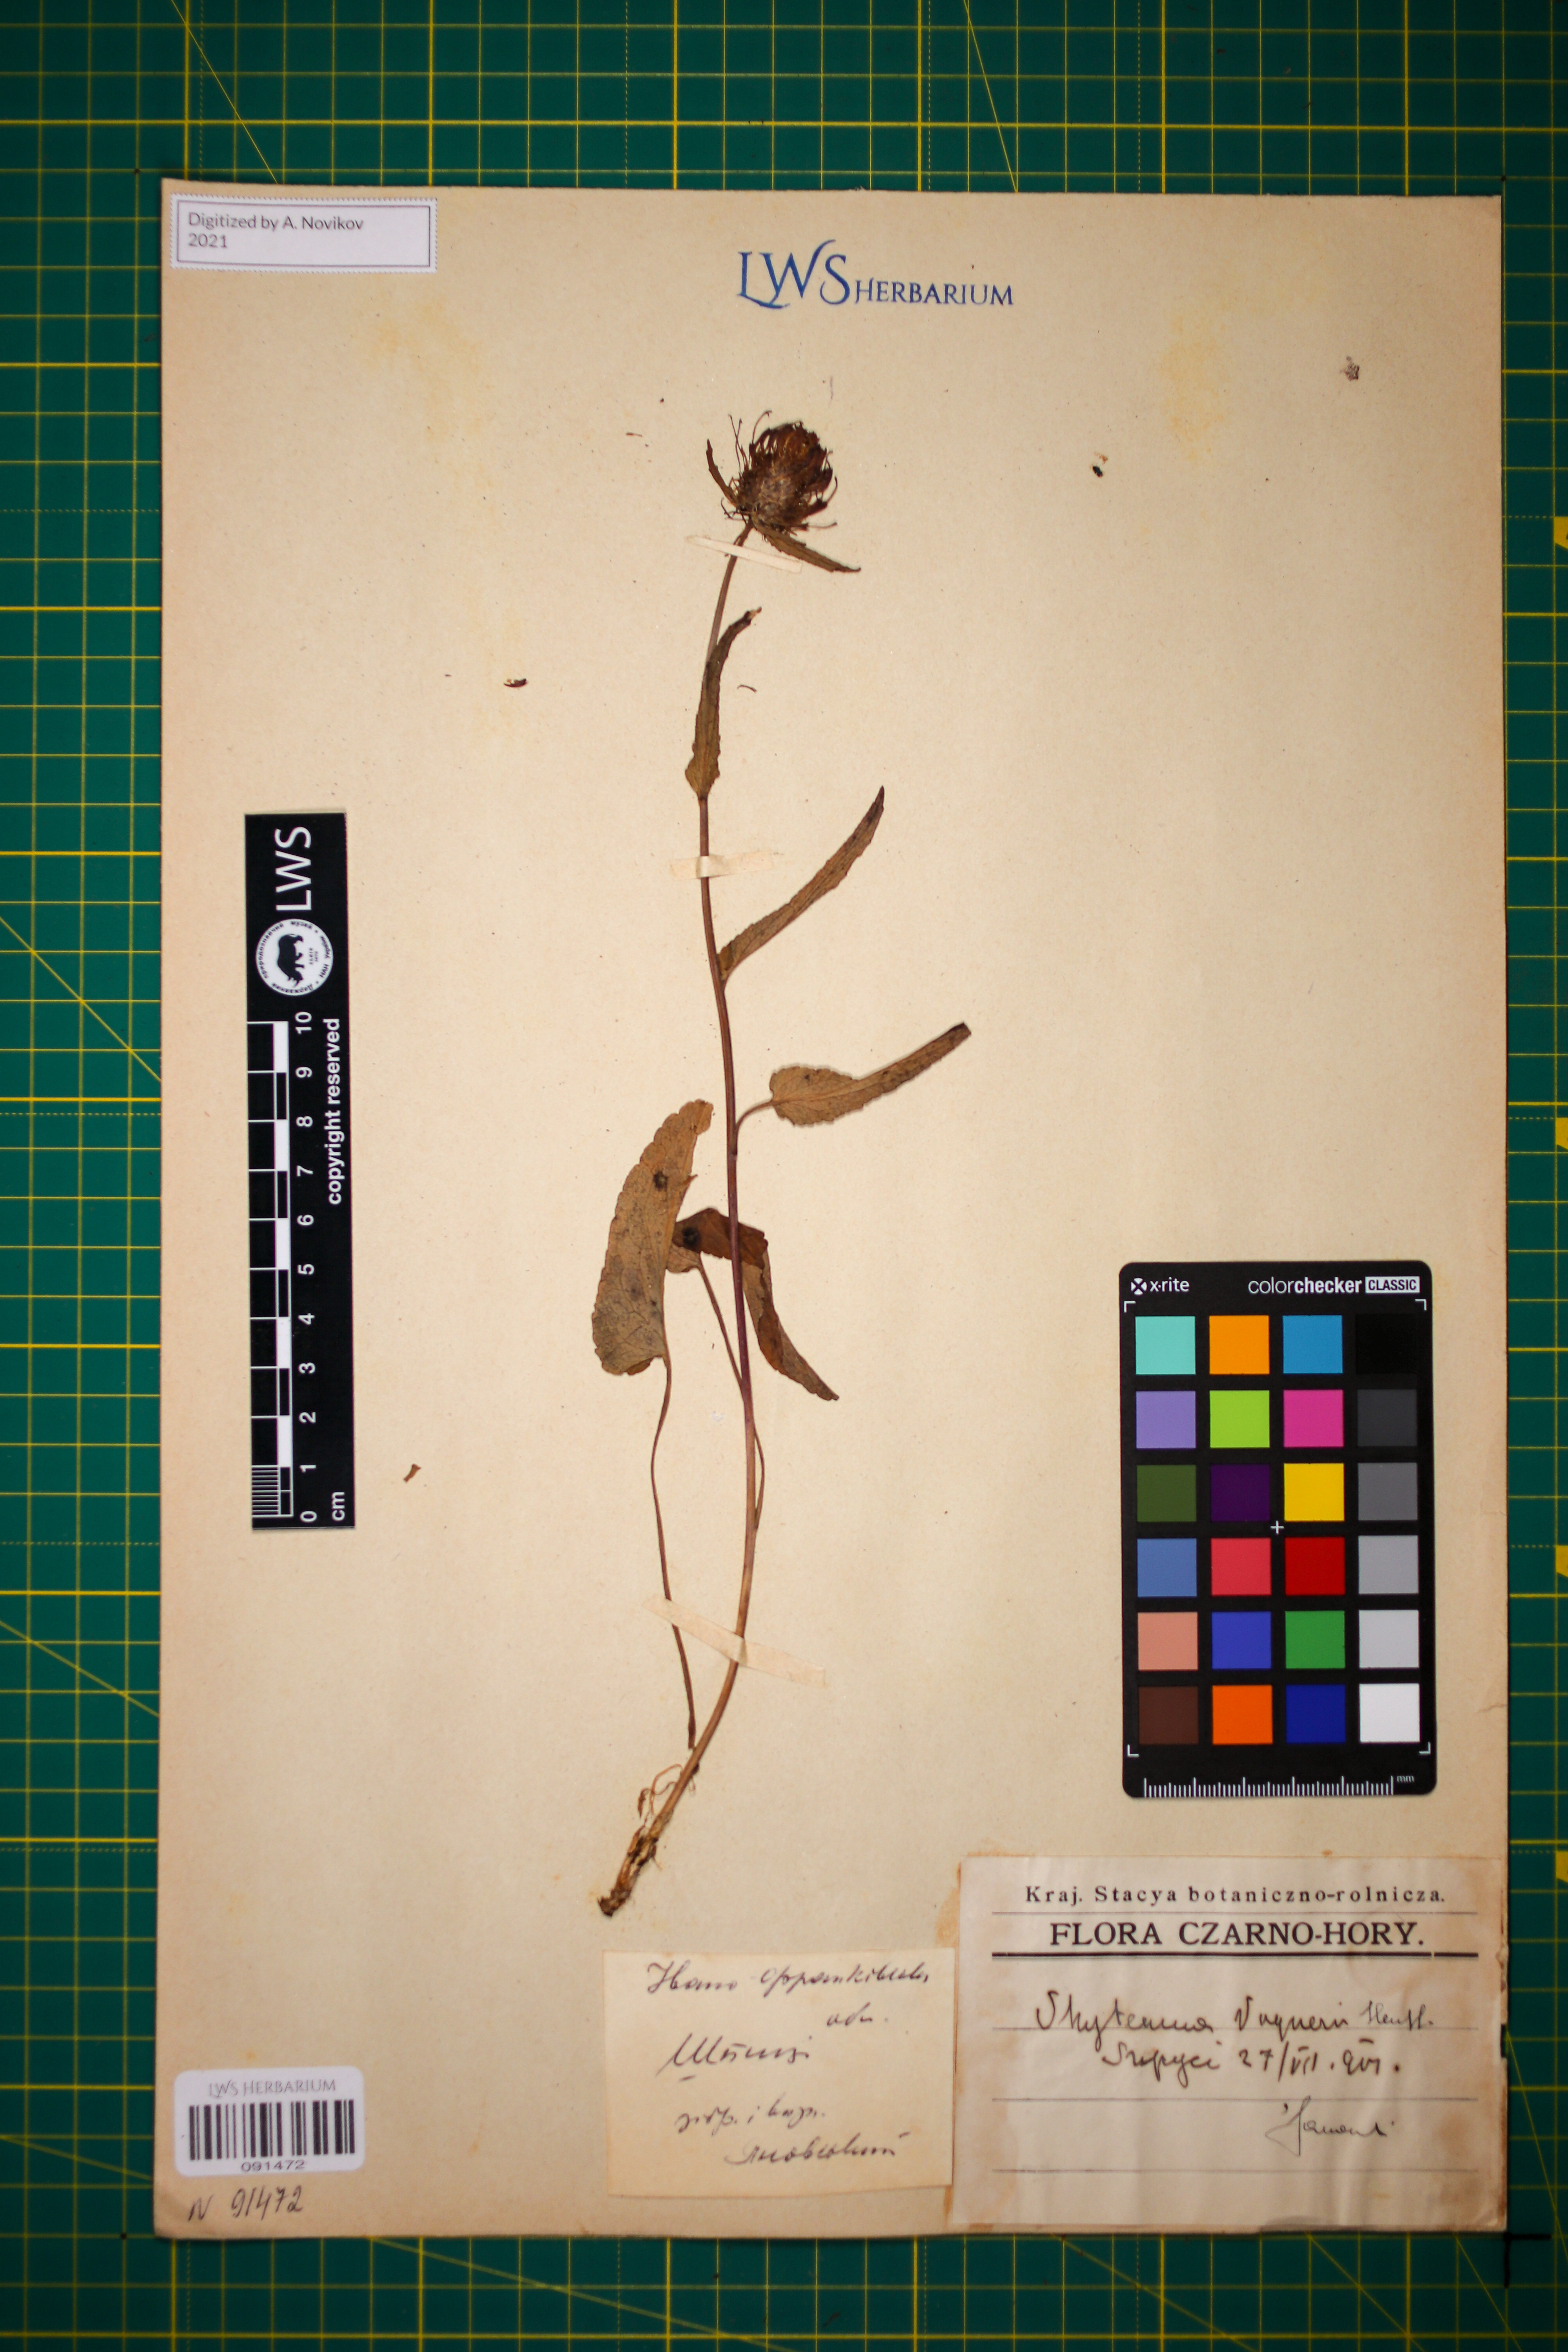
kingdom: Plantae
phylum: Tracheophyta
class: Magnoliopsida
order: Asterales
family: Campanulaceae
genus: Phyteuma
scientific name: Phyteuma vagneri
